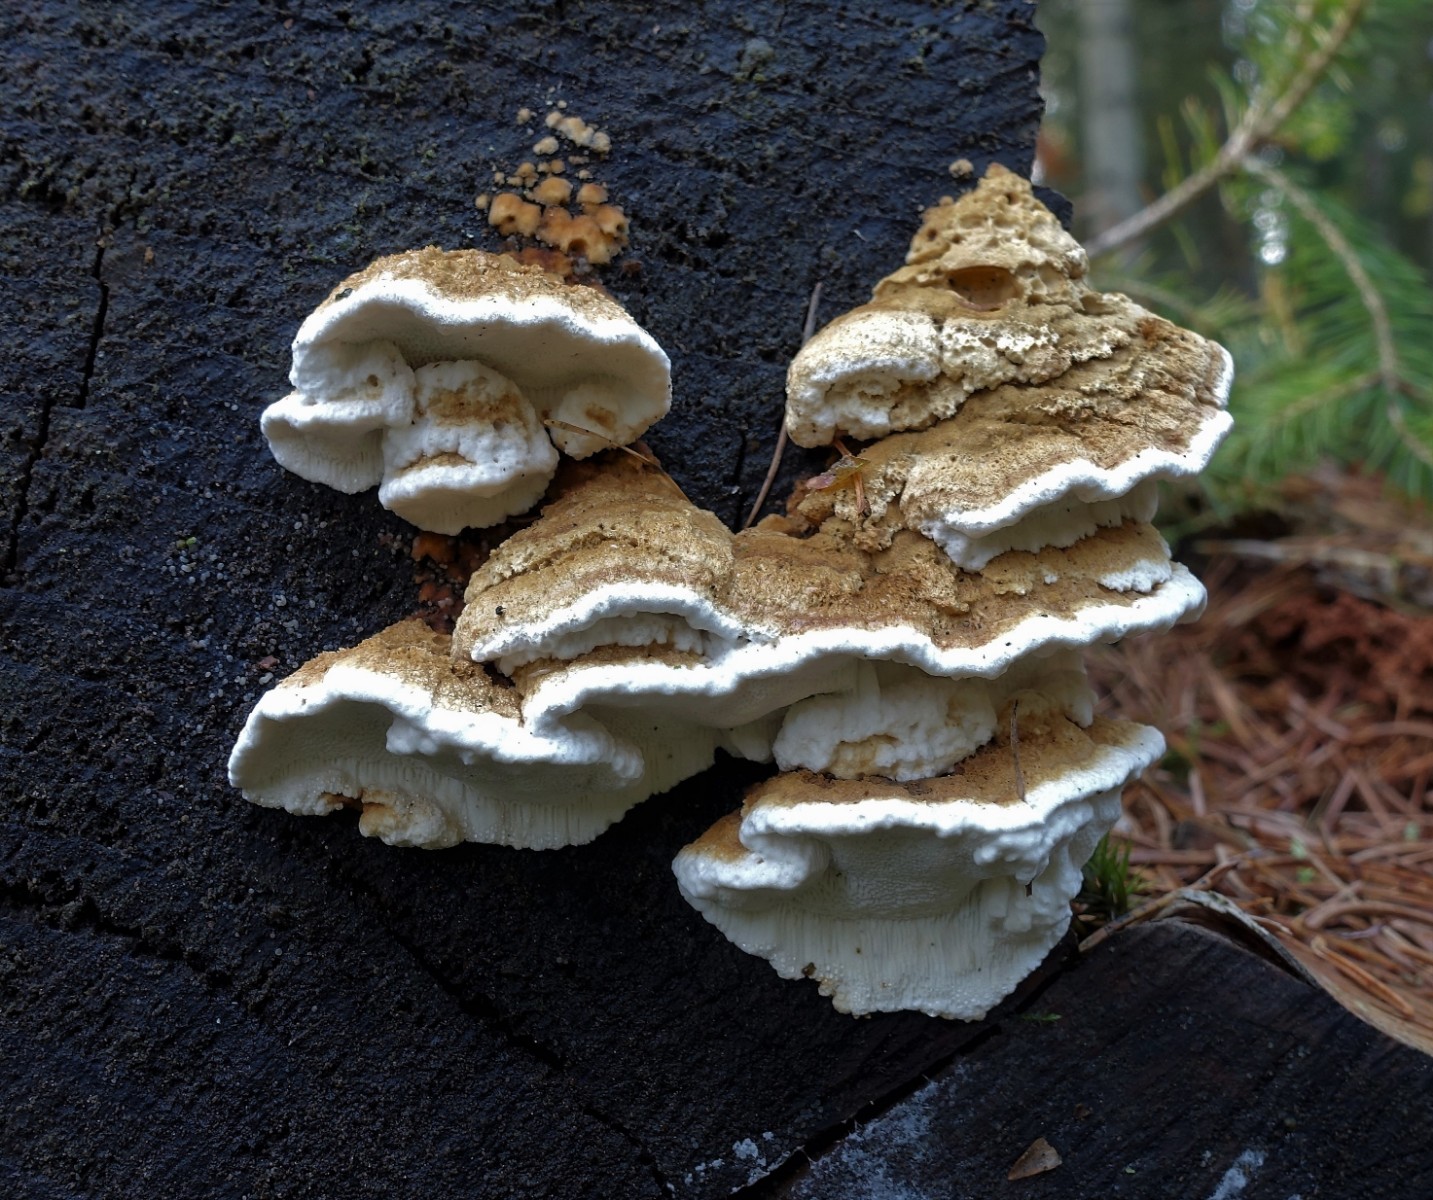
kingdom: Fungi
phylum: Basidiomycota
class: Agaricomycetes
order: Polyporales
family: Fomitopsidaceae
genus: Neoantrodia
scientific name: Neoantrodia serialis
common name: række-sejporesvamp
